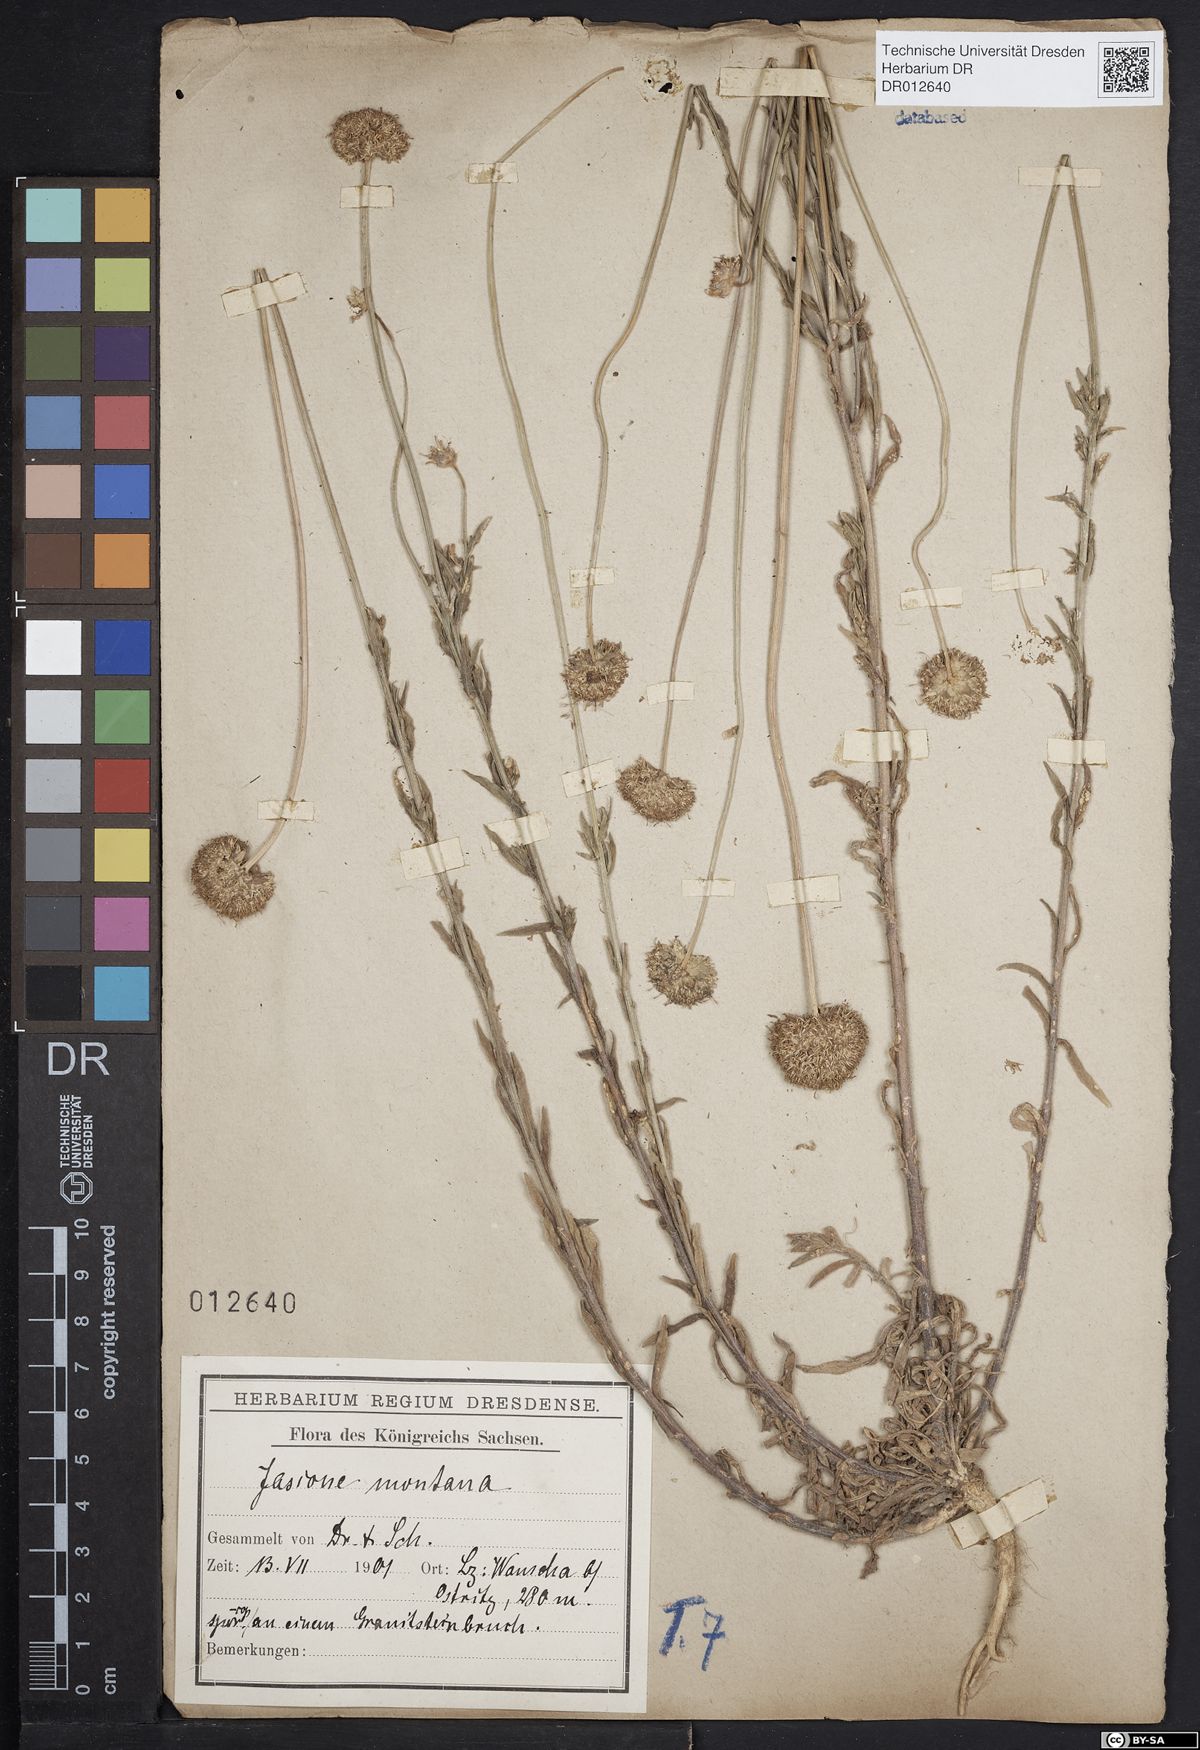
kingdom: Plantae
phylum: Tracheophyta
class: Magnoliopsida
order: Asterales
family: Campanulaceae
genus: Jasione
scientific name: Jasione montana
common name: Sheep's-bit
